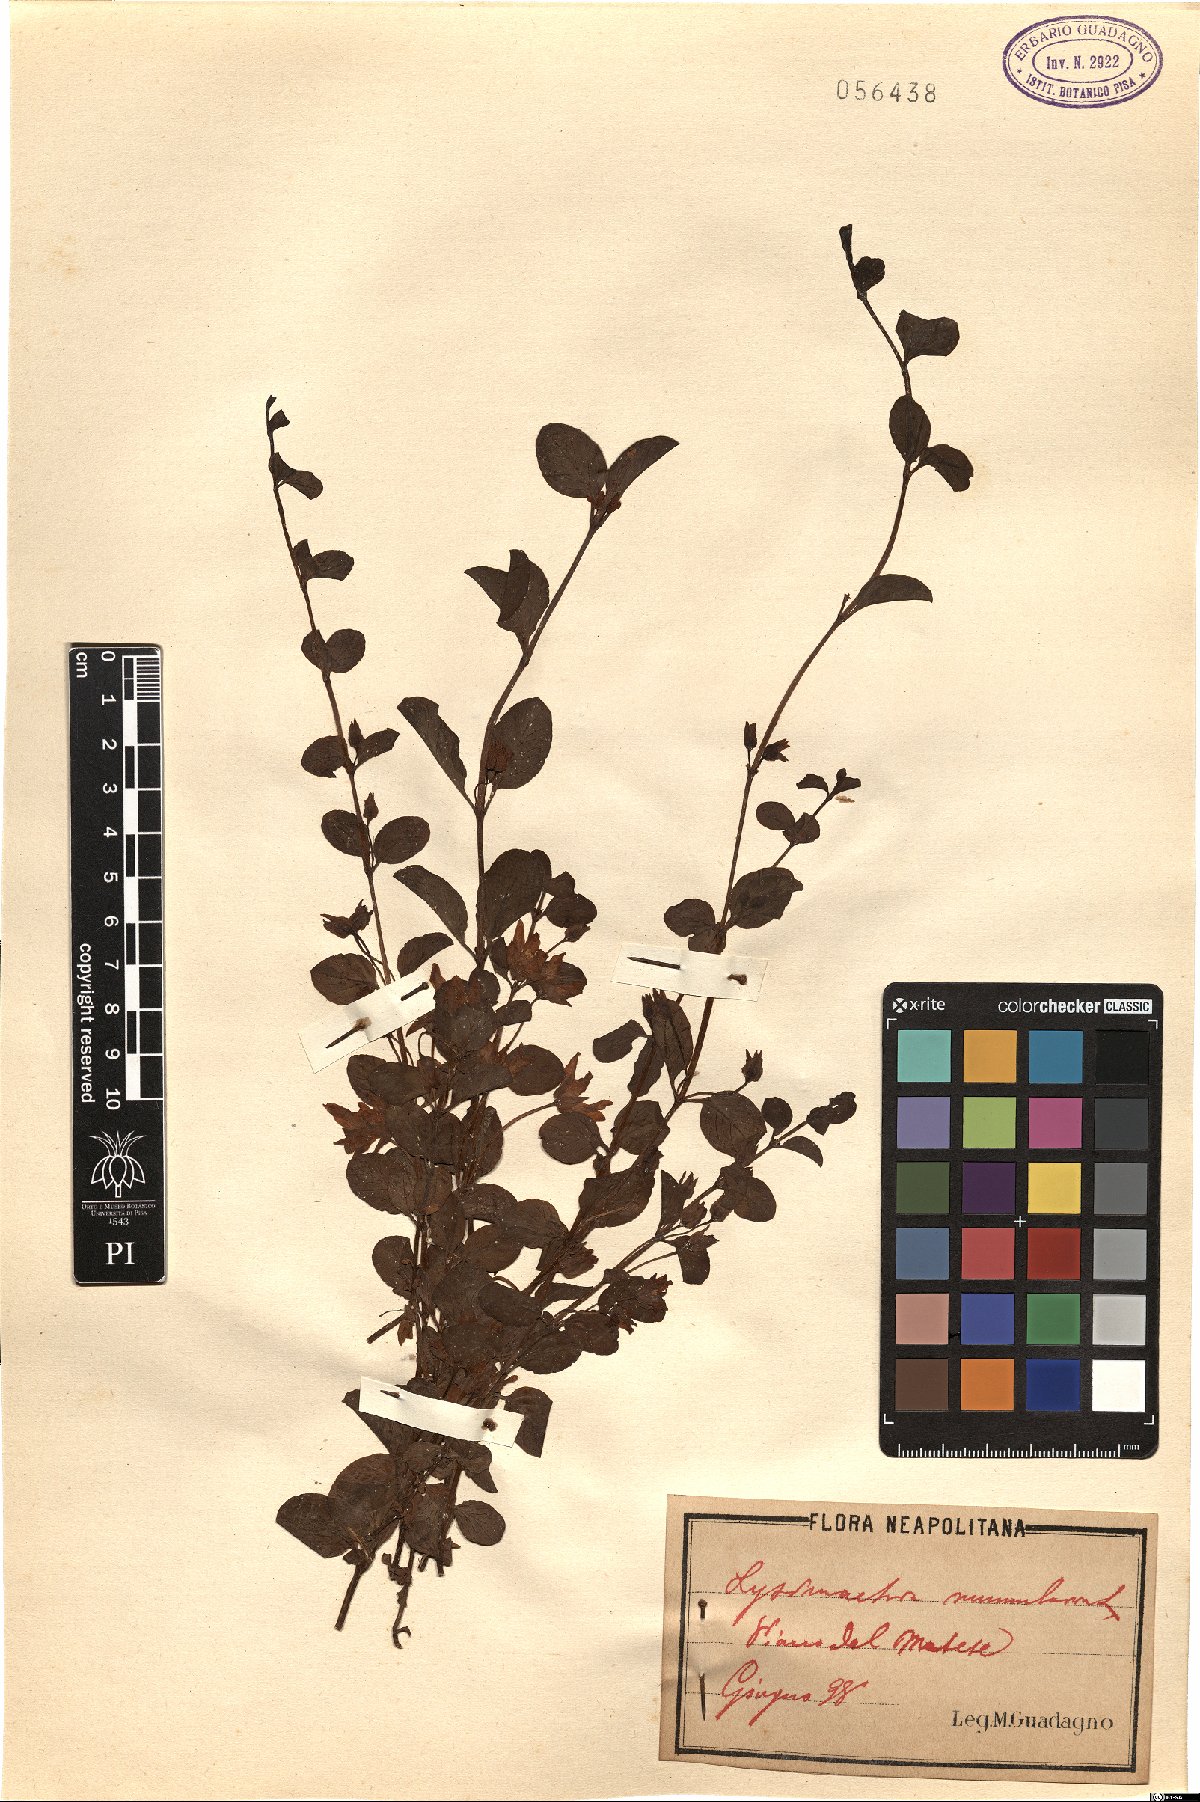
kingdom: Plantae
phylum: Tracheophyta
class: Magnoliopsida
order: Ericales
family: Primulaceae
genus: Lysimachia
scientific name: Lysimachia nummularia
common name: Moneywort
